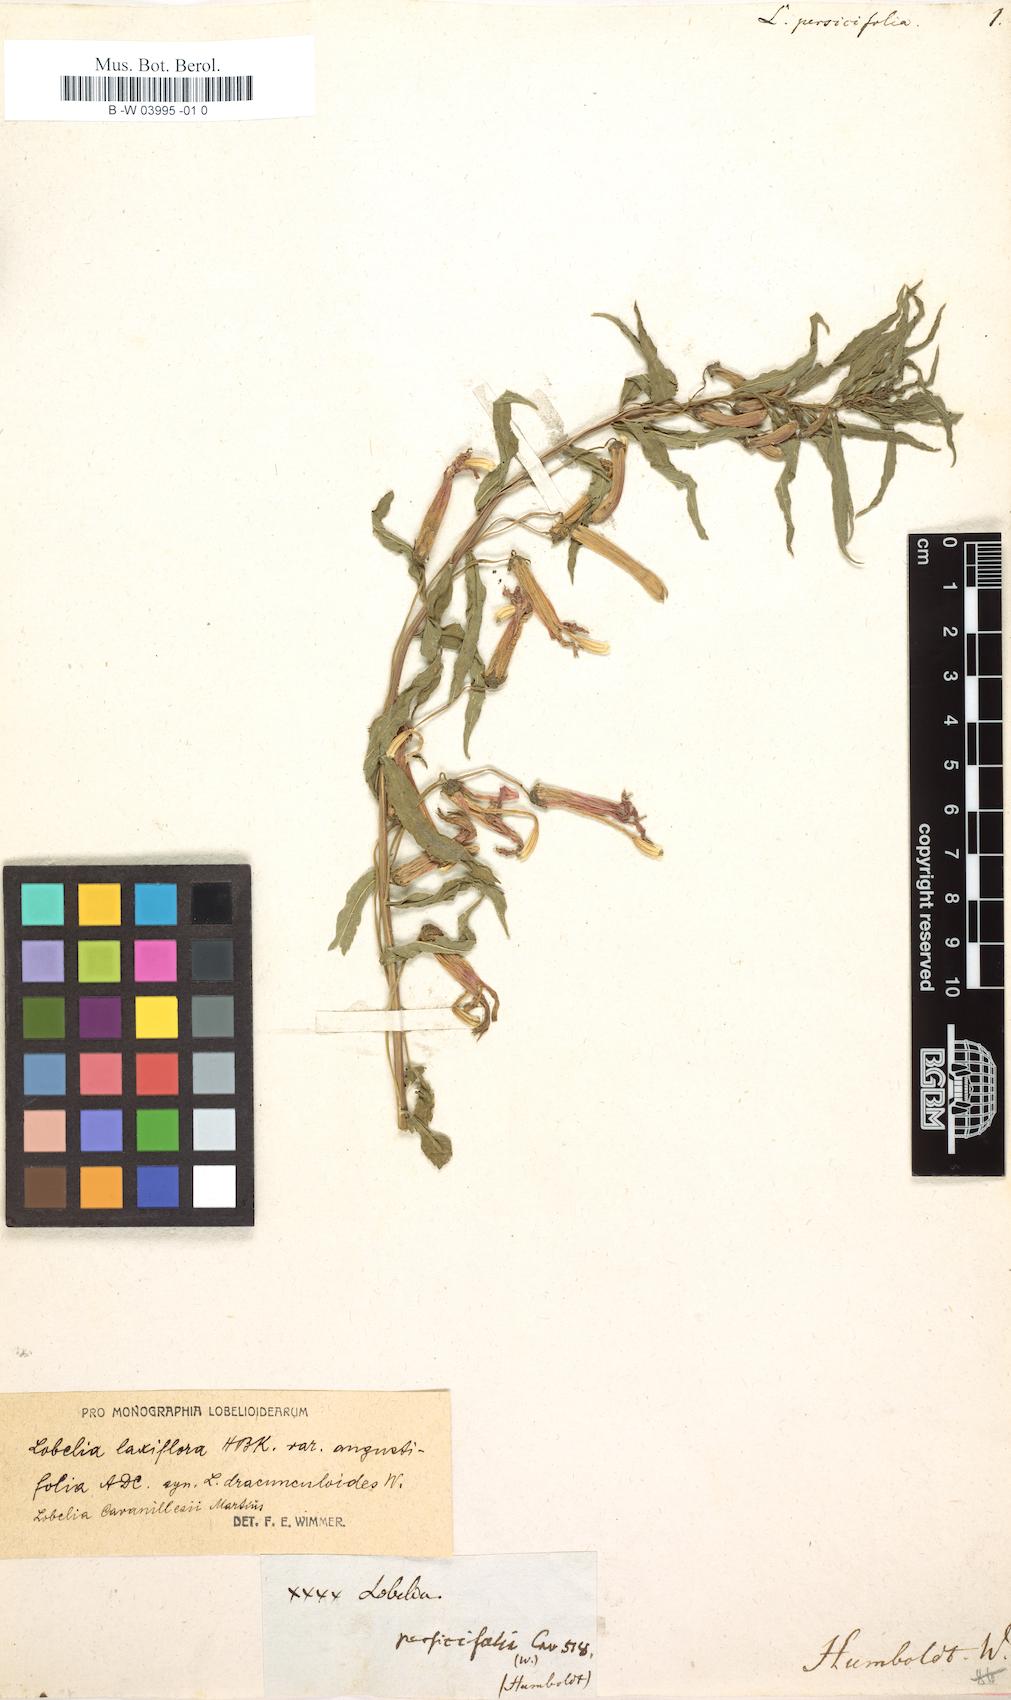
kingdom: Plantae
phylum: Tracheophyta
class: Magnoliopsida
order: Asterales
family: Campanulaceae
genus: Lobelia
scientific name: Lobelia persicifolia
